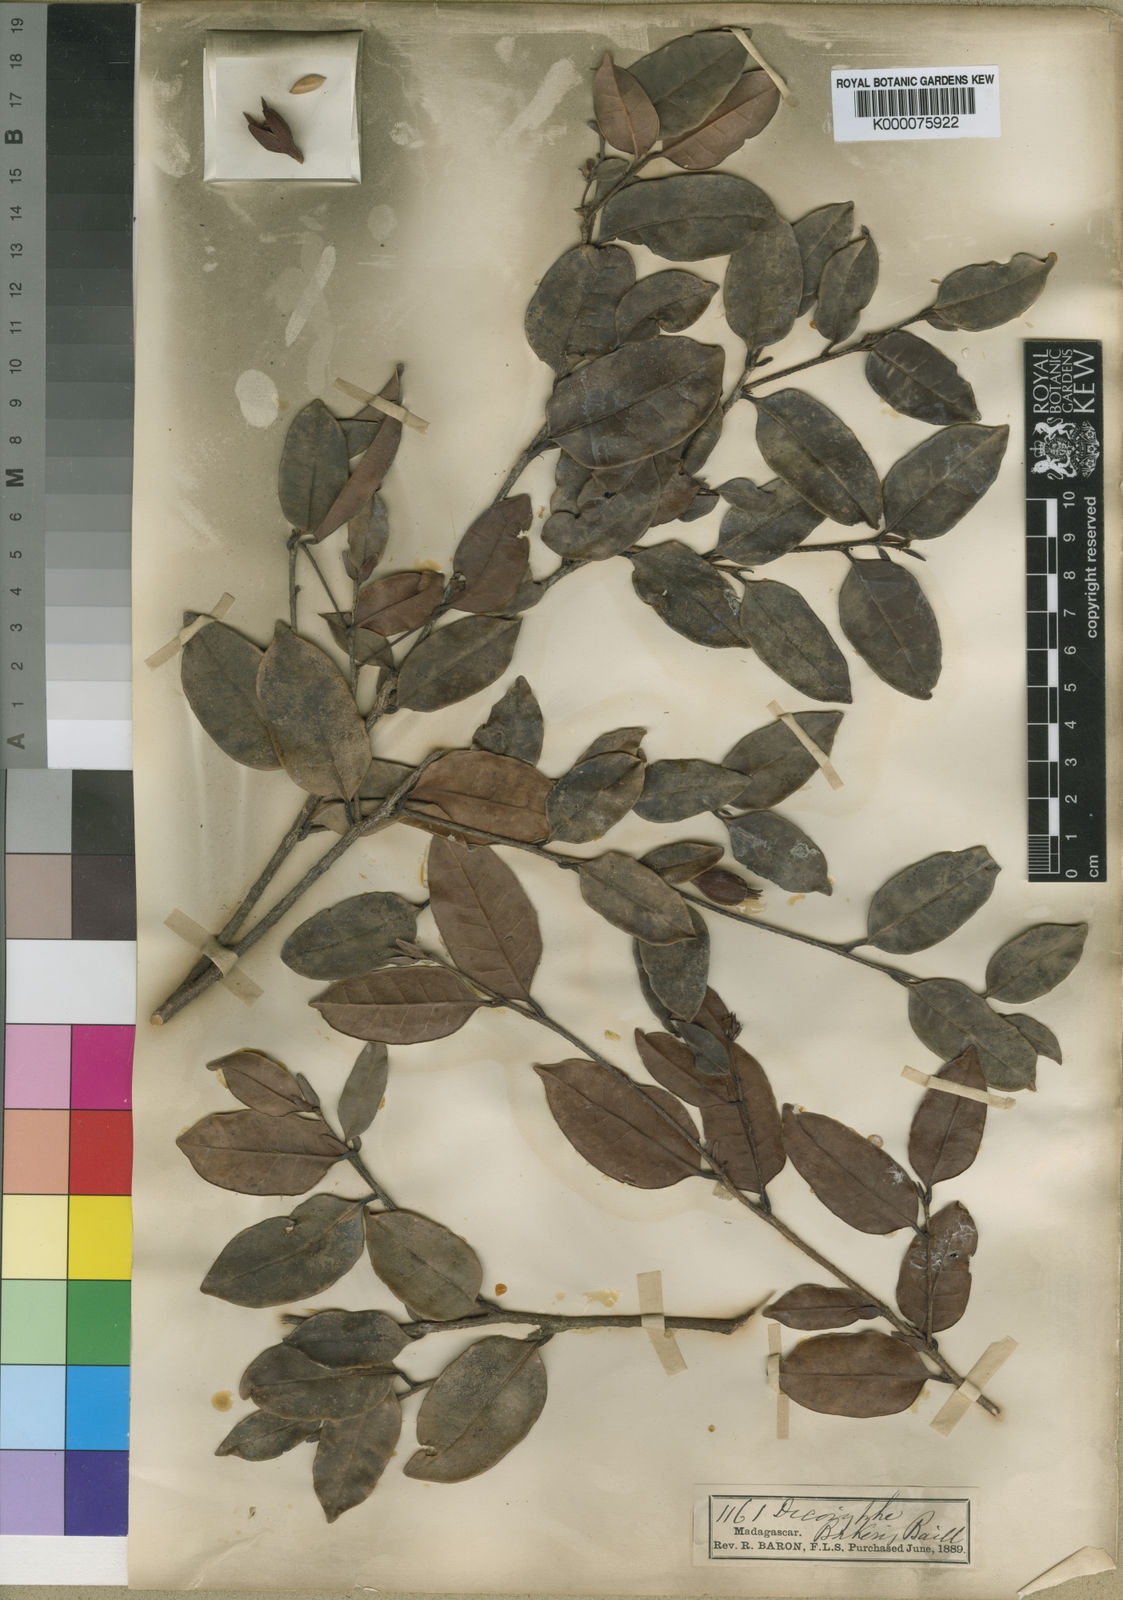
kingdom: Plantae
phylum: Tracheophyta
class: Magnoliopsida
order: Saxifragales
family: Hamamelidaceae
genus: Dicoryphe
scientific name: Dicoryphe
